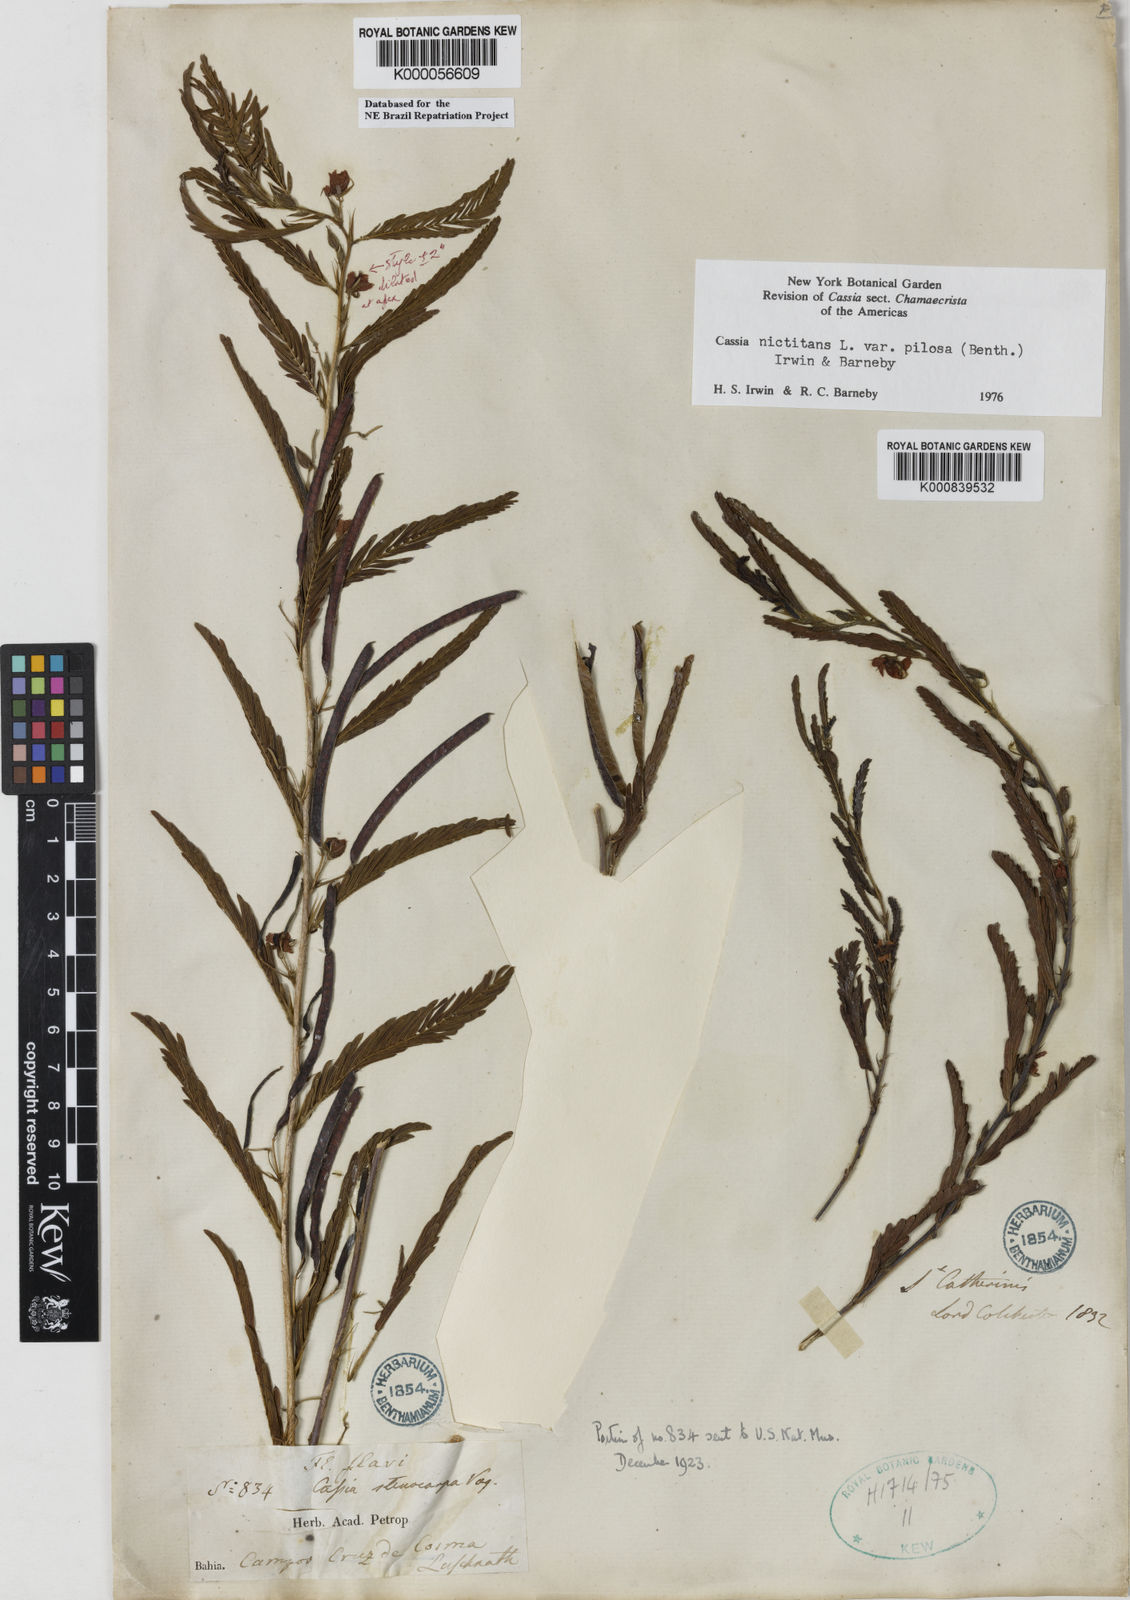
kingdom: Plantae
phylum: Tracheophyta
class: Magnoliopsida
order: Fabales
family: Fabaceae
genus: Chamaecrista
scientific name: Chamaecrista nictitans
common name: Sensitive cassia
